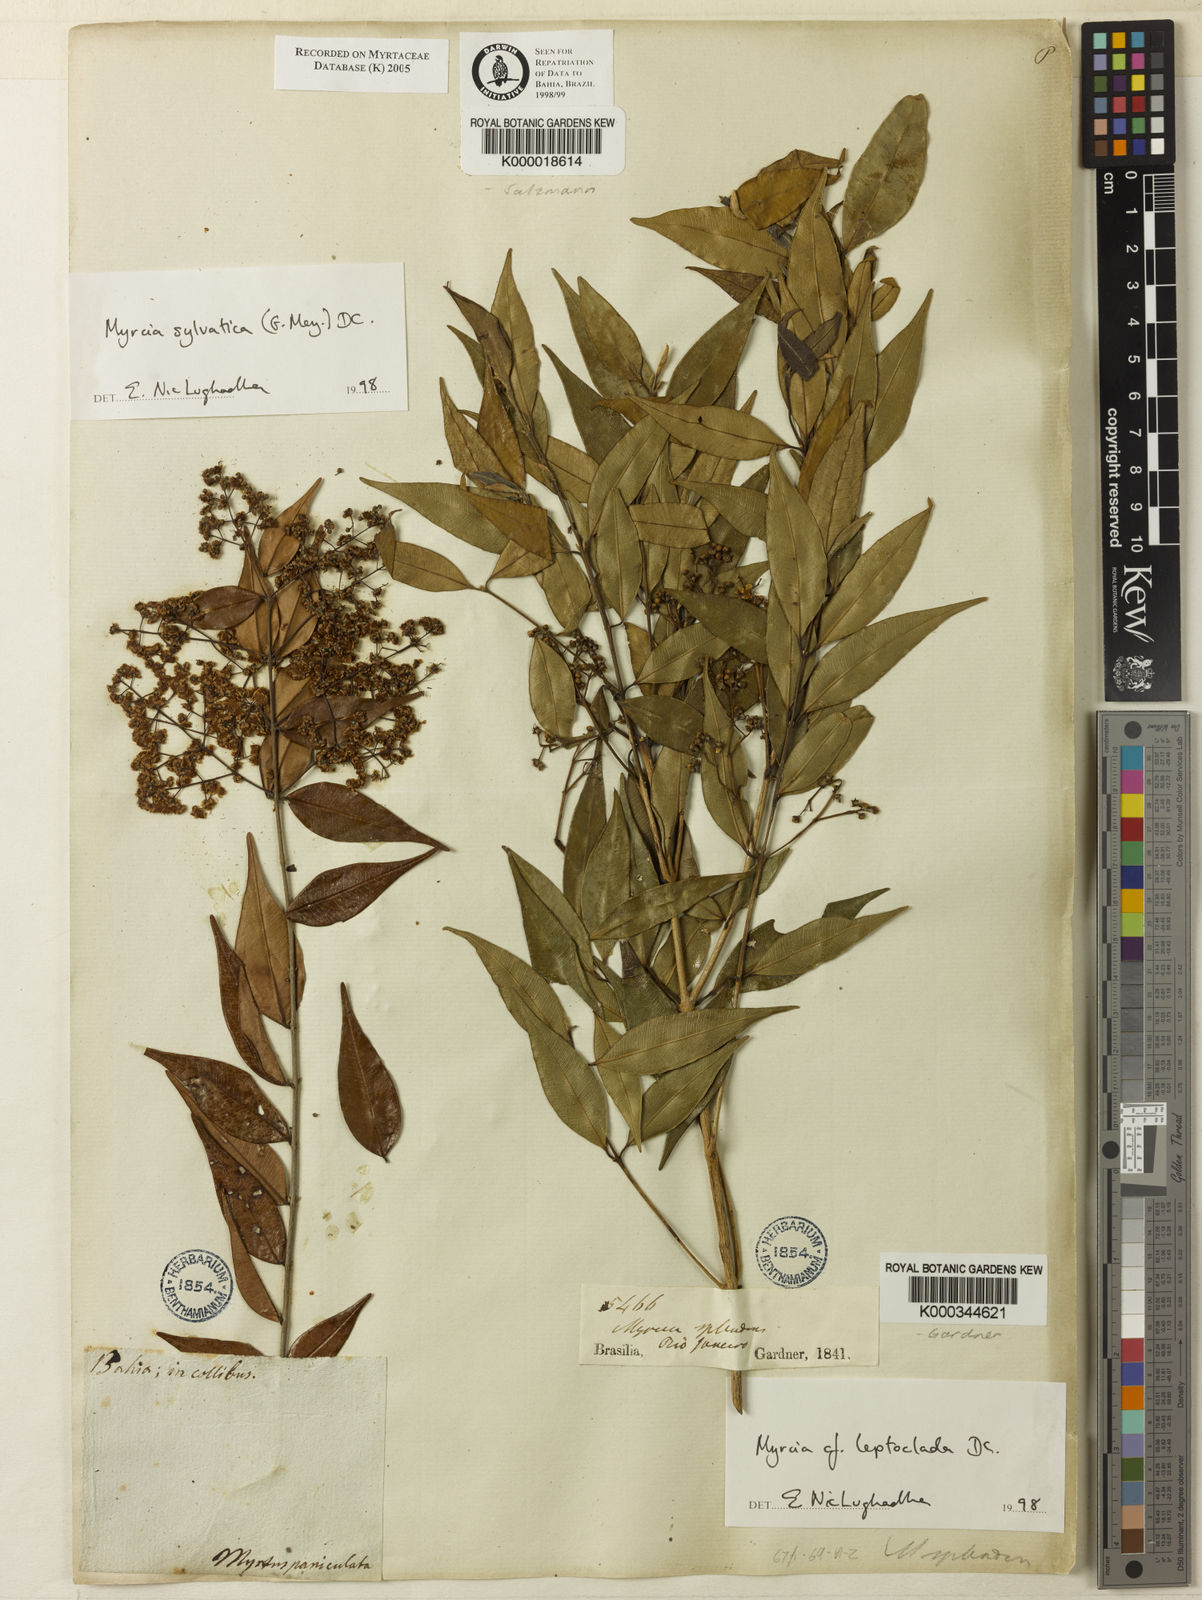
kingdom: Plantae
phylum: Tracheophyta
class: Magnoliopsida
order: Myrtales
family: Myrtaceae
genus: Myrcia
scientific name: Myrcia amazonica
